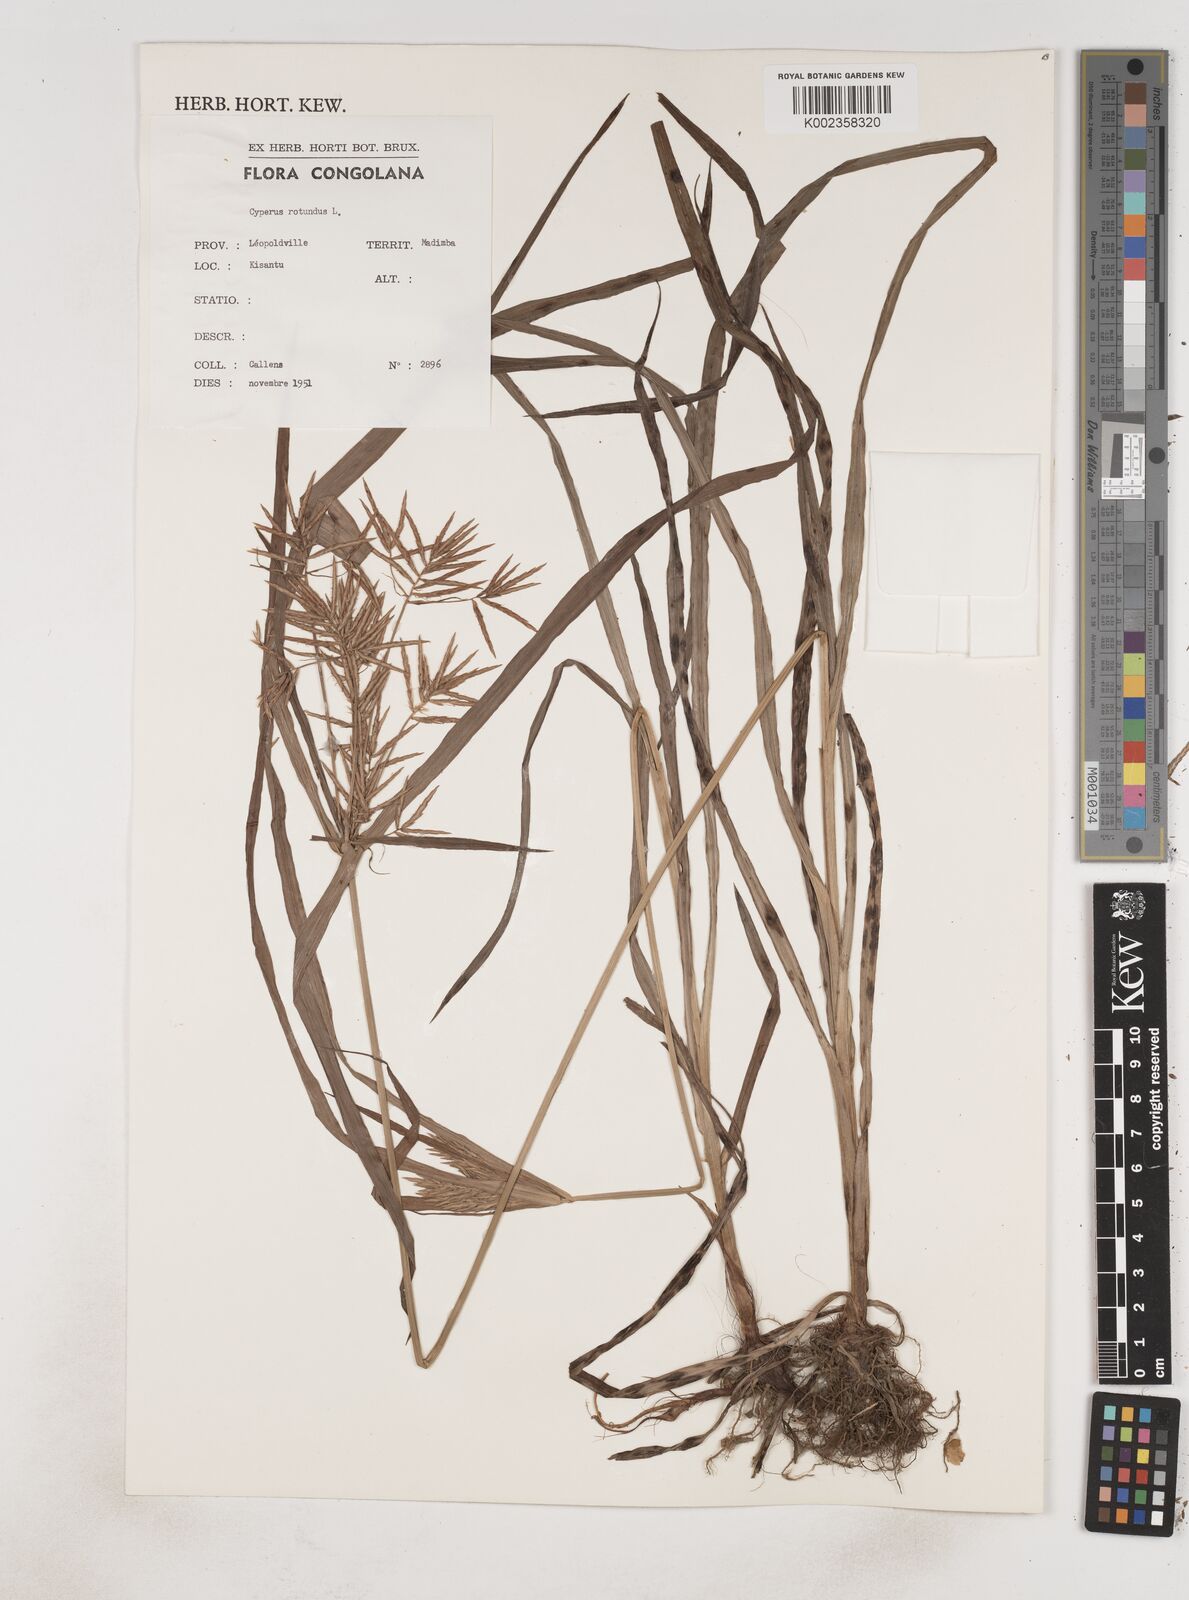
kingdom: Plantae
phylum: Tracheophyta
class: Liliopsida
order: Poales
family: Cyperaceae
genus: Cyperus
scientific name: Cyperus rotundus
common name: Nutgrass
